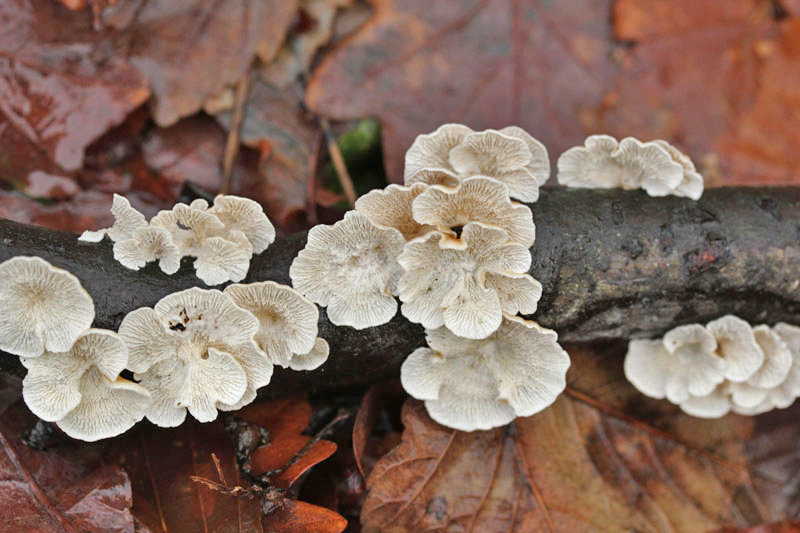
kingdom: Fungi
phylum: Basidiomycota
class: Agaricomycetes
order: Amylocorticiales
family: Amylocorticiaceae
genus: Plicaturopsis
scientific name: Plicaturopsis crispa
